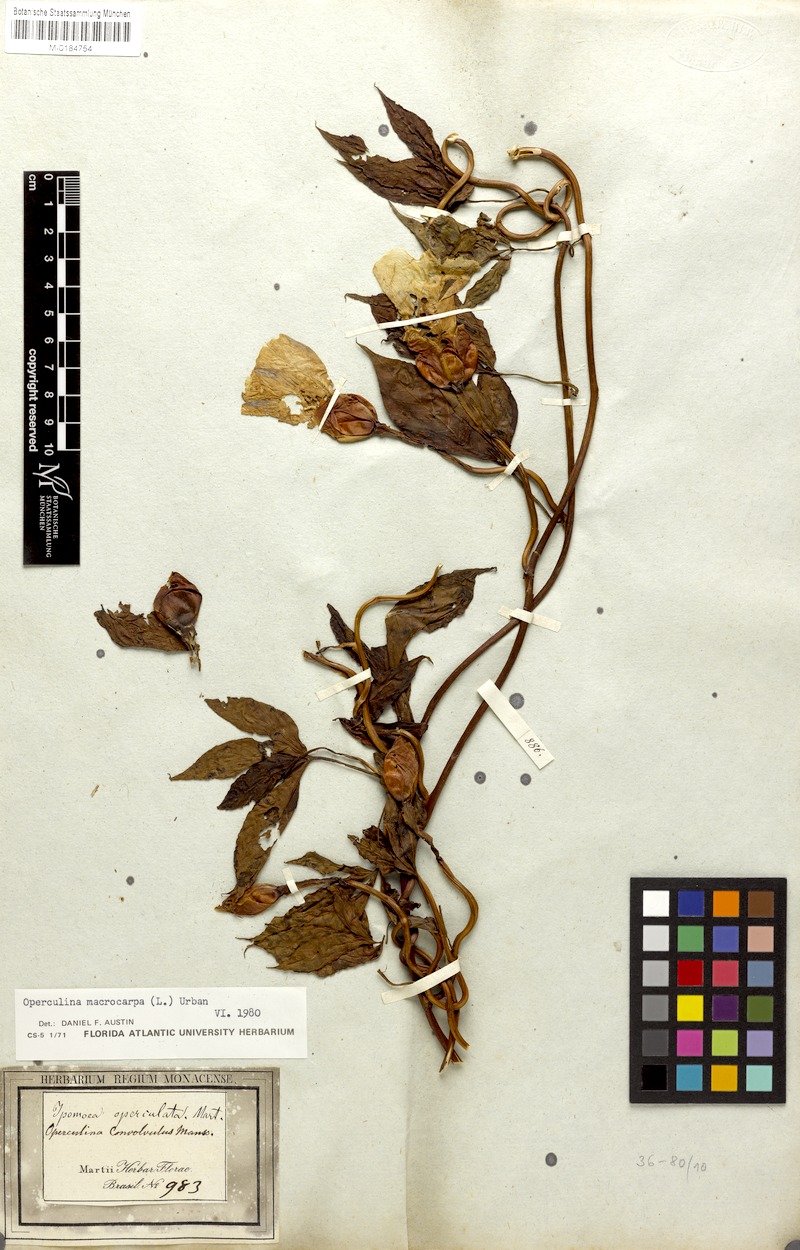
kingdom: Plantae
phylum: Tracheophyta
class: Magnoliopsida
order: Solanales
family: Convolvulaceae
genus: Operculina
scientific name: Operculina macrocarpa
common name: Brazilian jalap
